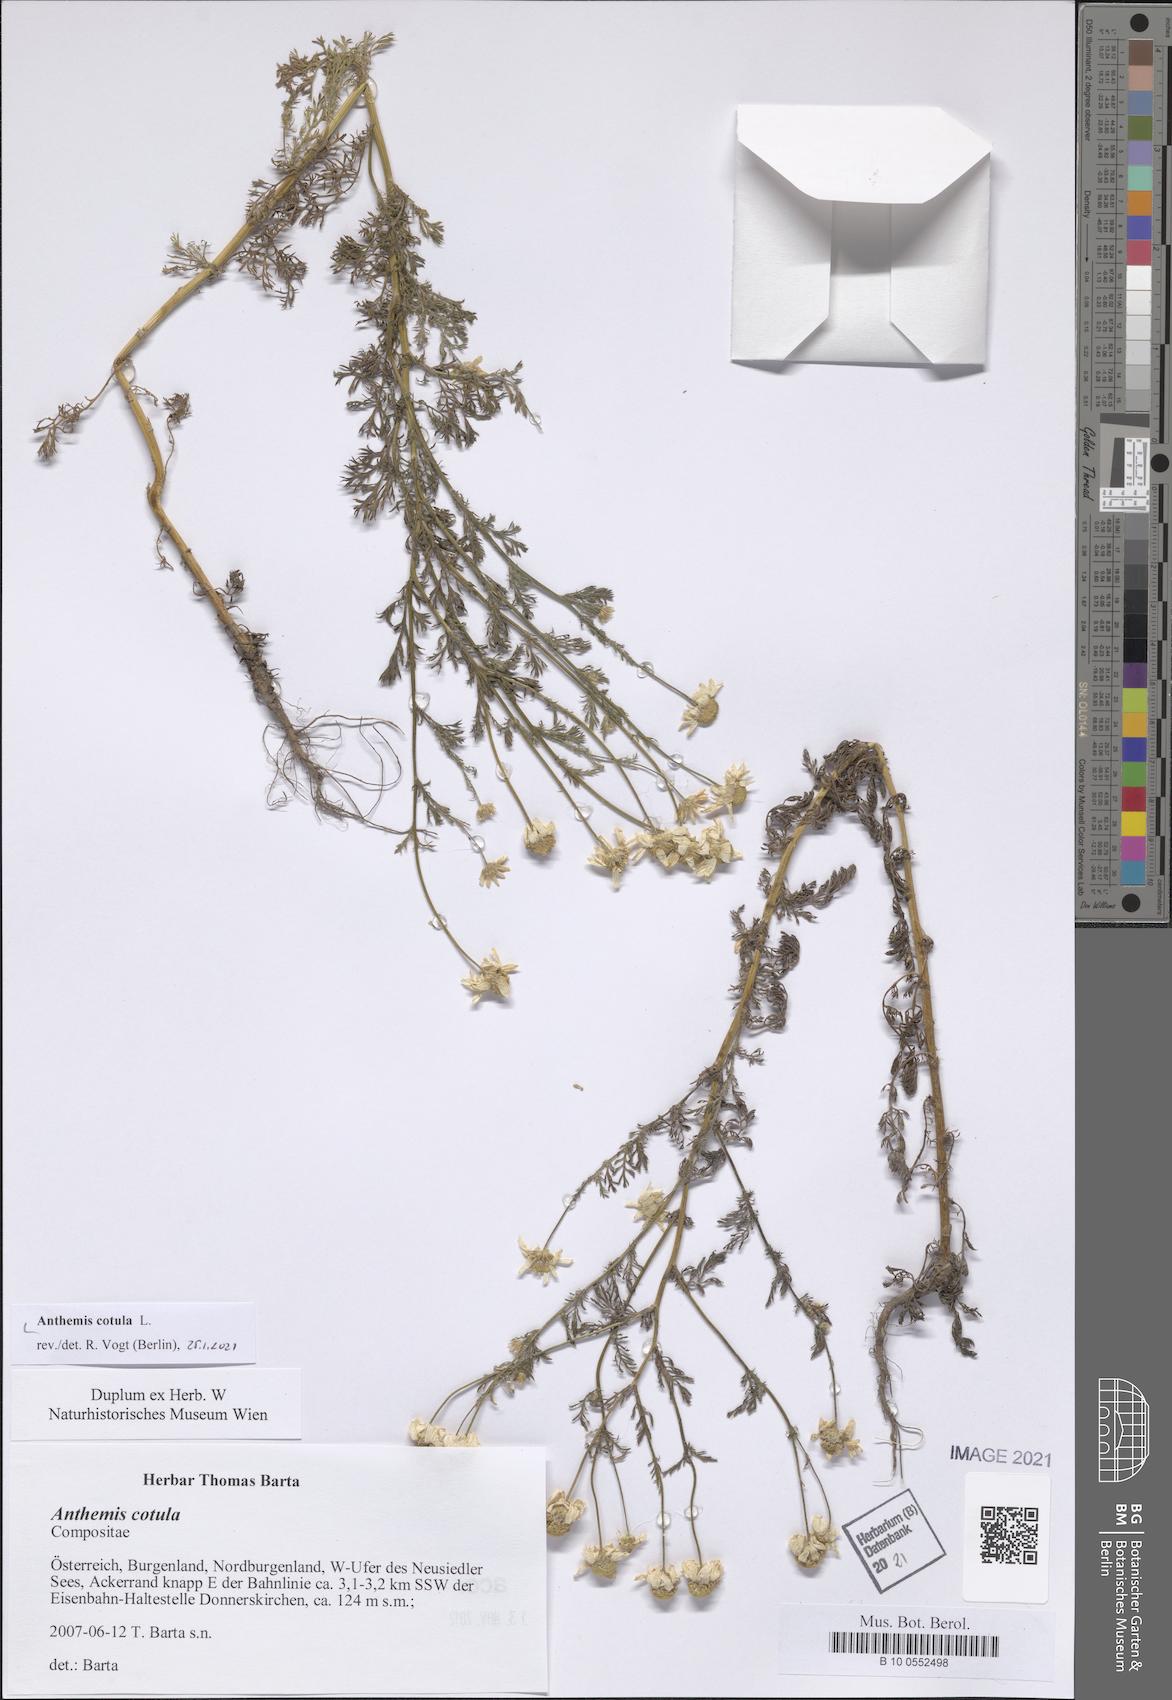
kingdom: Plantae
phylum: Tracheophyta
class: Magnoliopsida
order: Asterales
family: Asteraceae
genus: Anthemis
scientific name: Anthemis cotula
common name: Stinking chamomile
